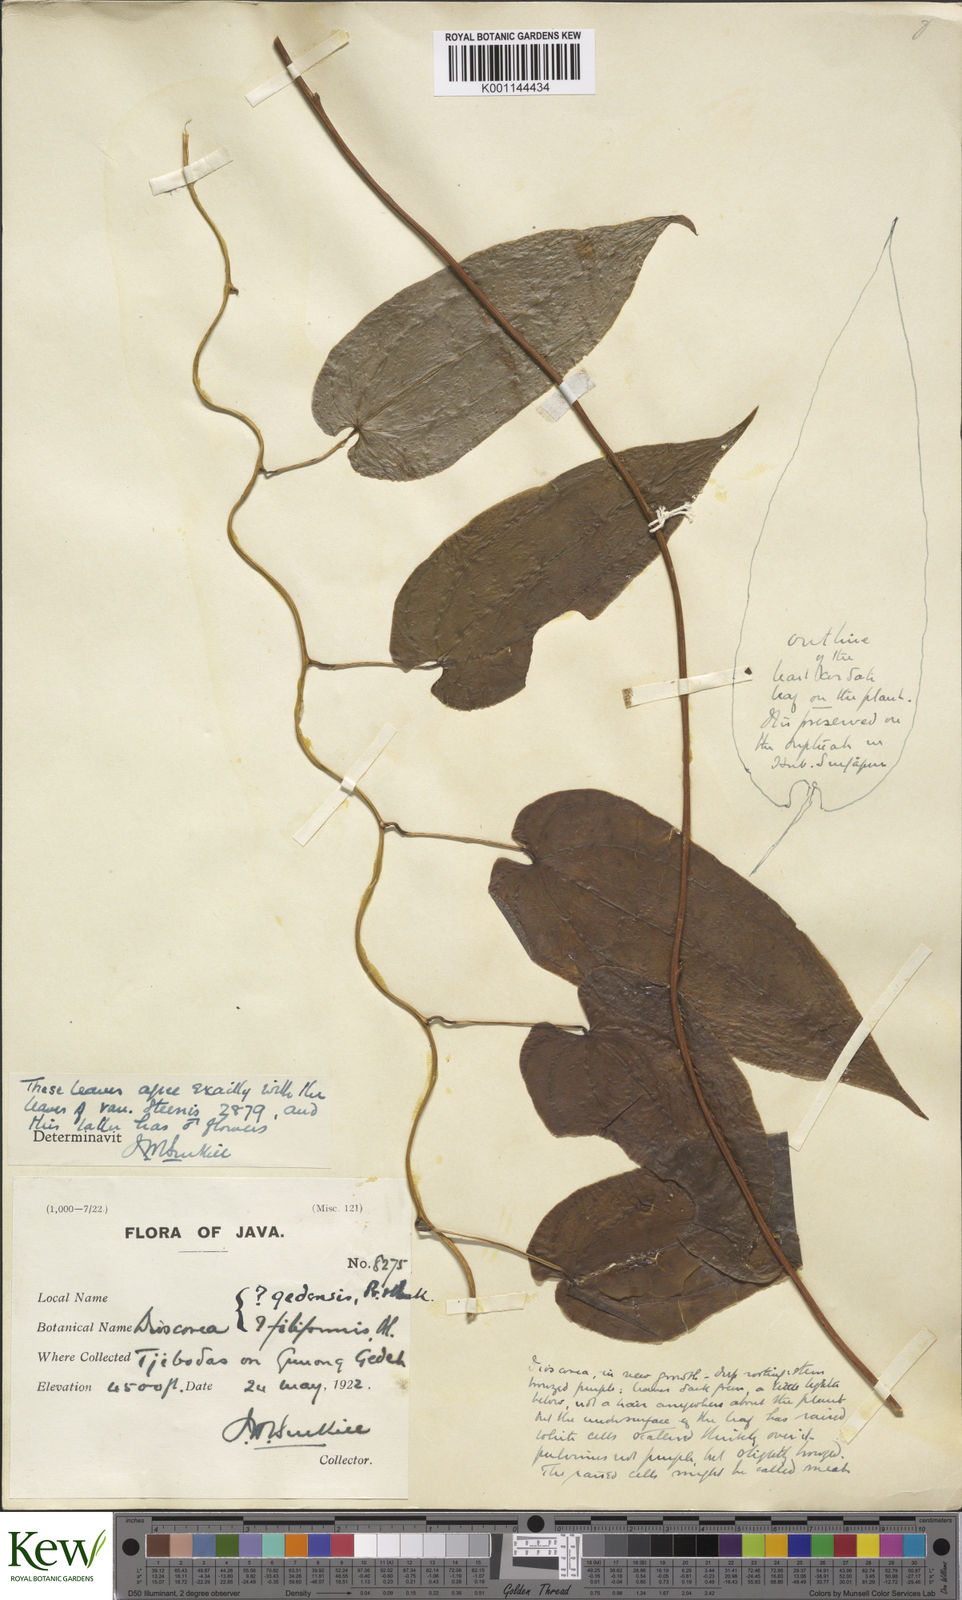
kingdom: Plantae
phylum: Tracheophyta
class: Liliopsida
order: Dioscoreales
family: Dioscoreaceae
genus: Dioscorea
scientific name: Dioscorea filiformis
